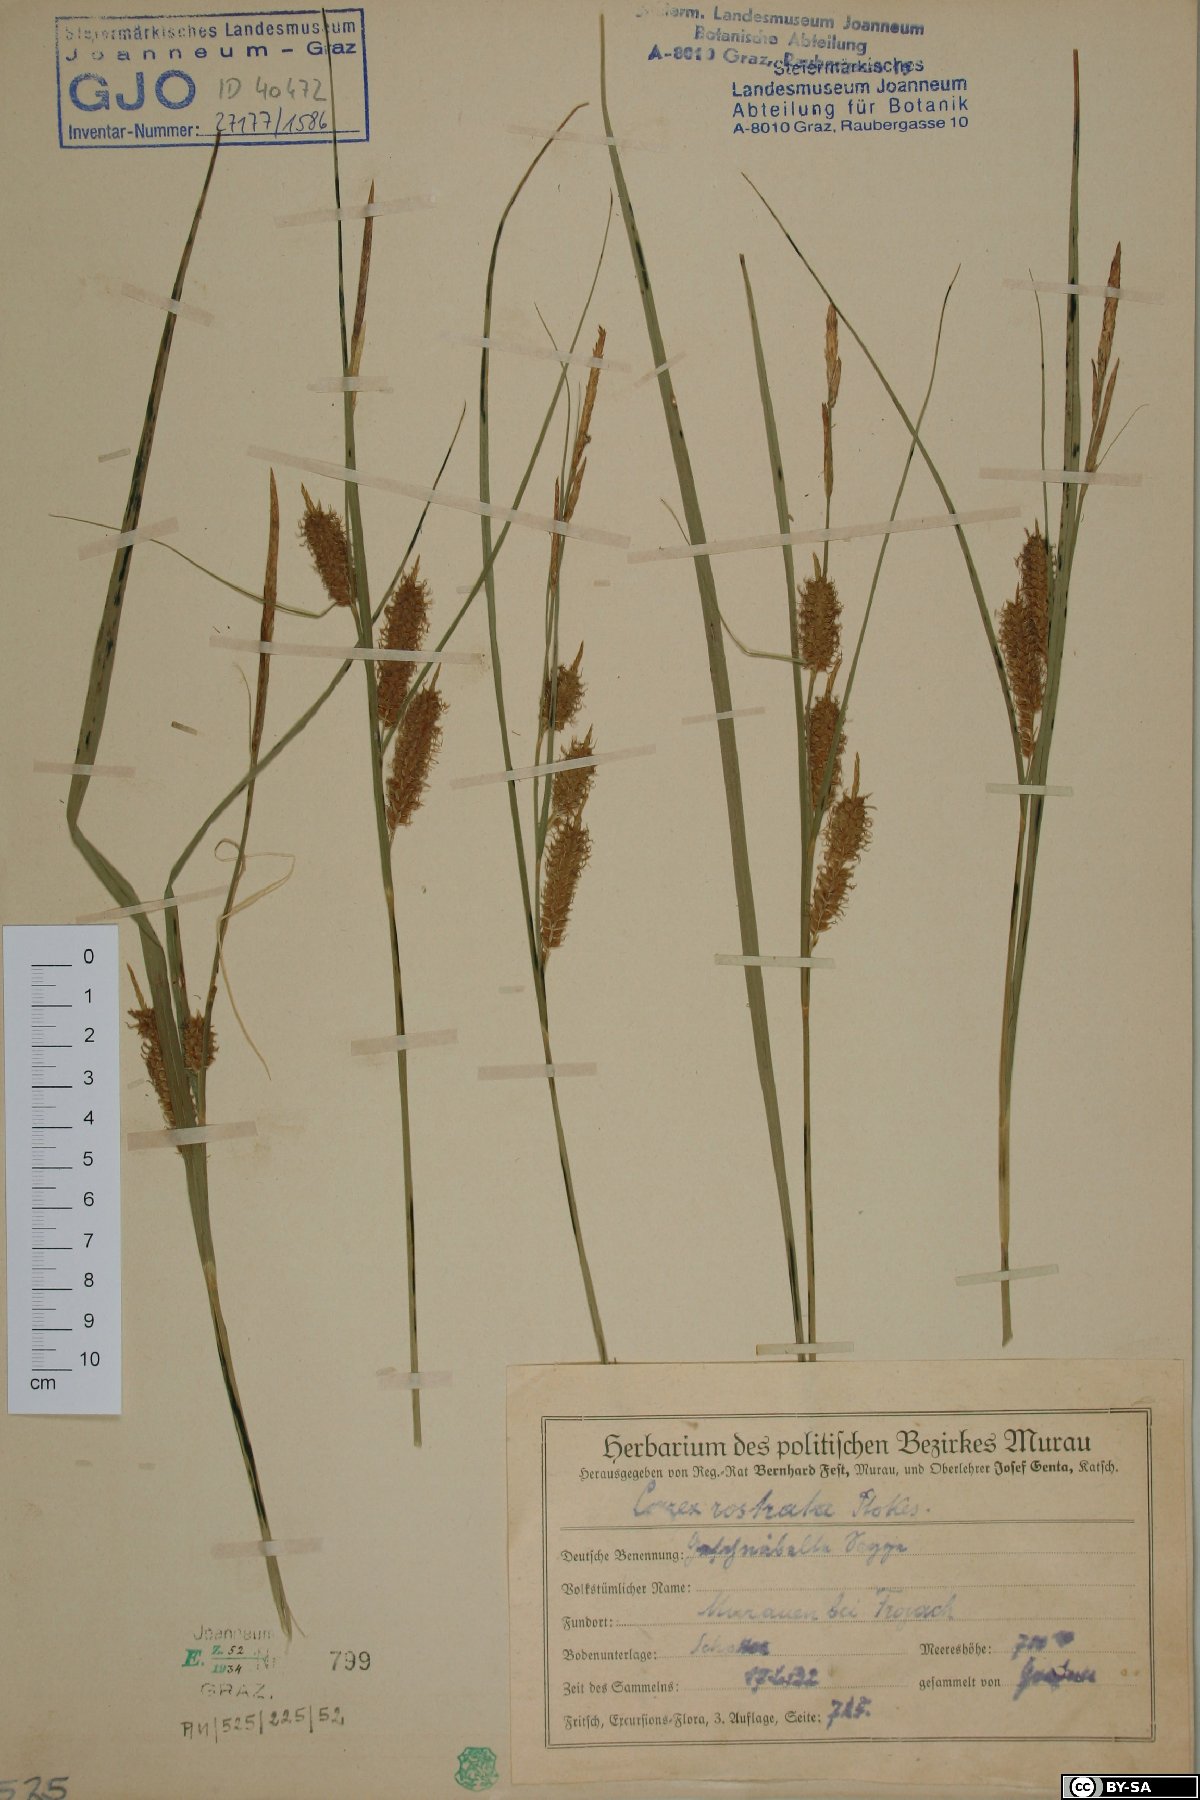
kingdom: Plantae
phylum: Tracheophyta
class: Liliopsida
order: Poales
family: Cyperaceae
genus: Carex
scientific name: Carex rostrata
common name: Bottle sedge
